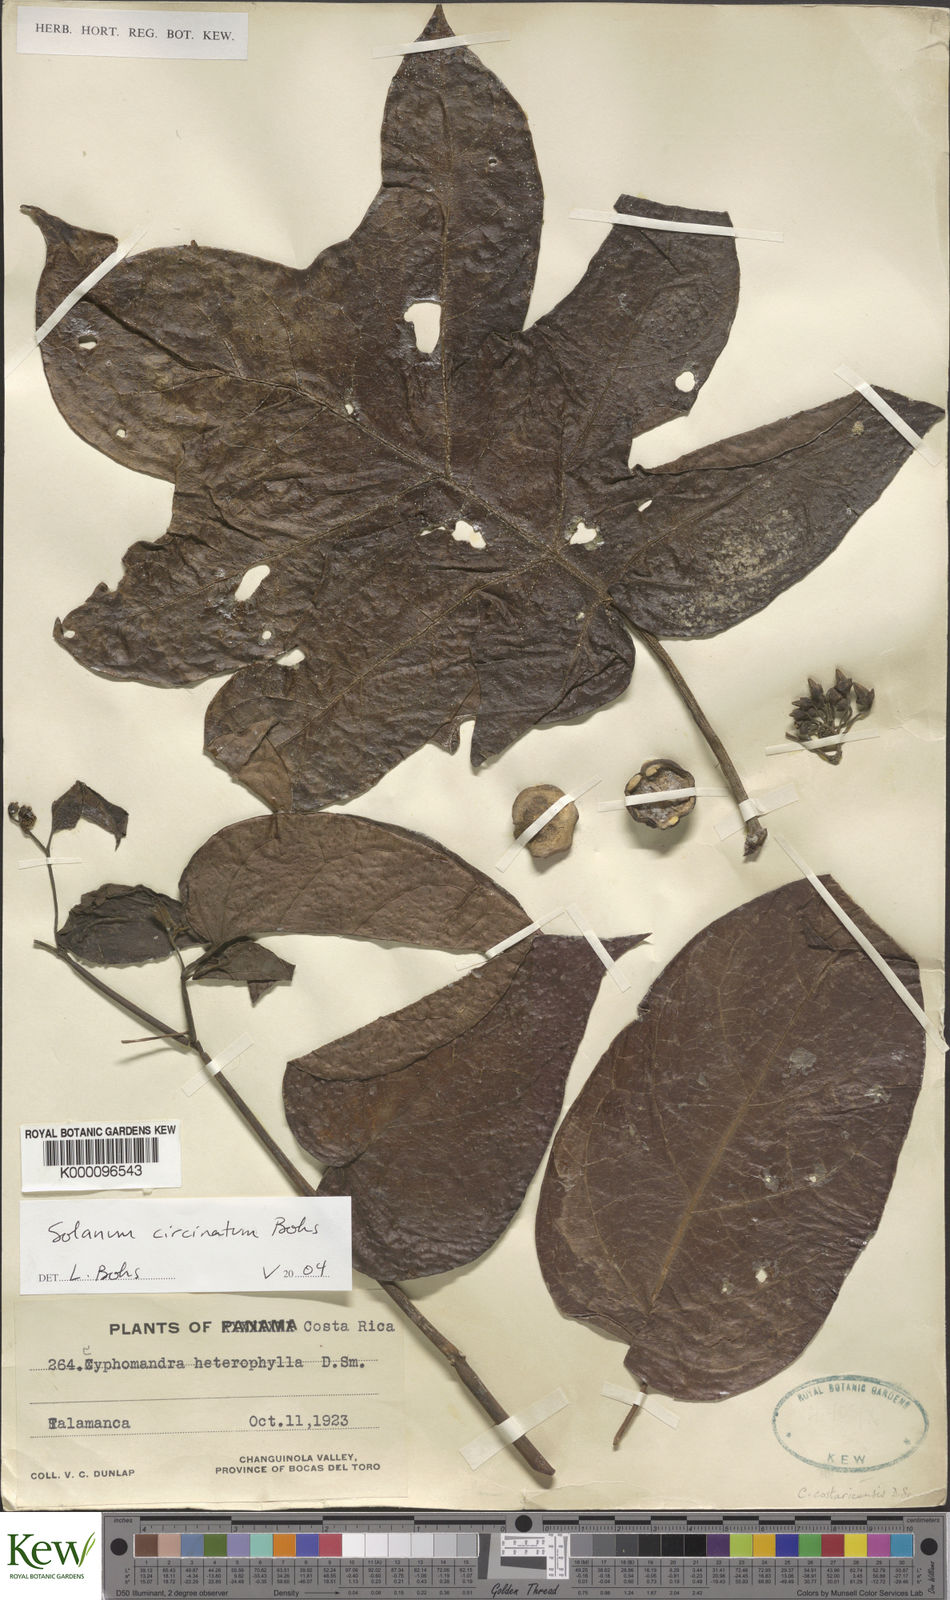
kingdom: Plantae
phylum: Tracheophyta
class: Magnoliopsida
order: Solanales
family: Solanaceae
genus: Solanum
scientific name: Solanum splendens
